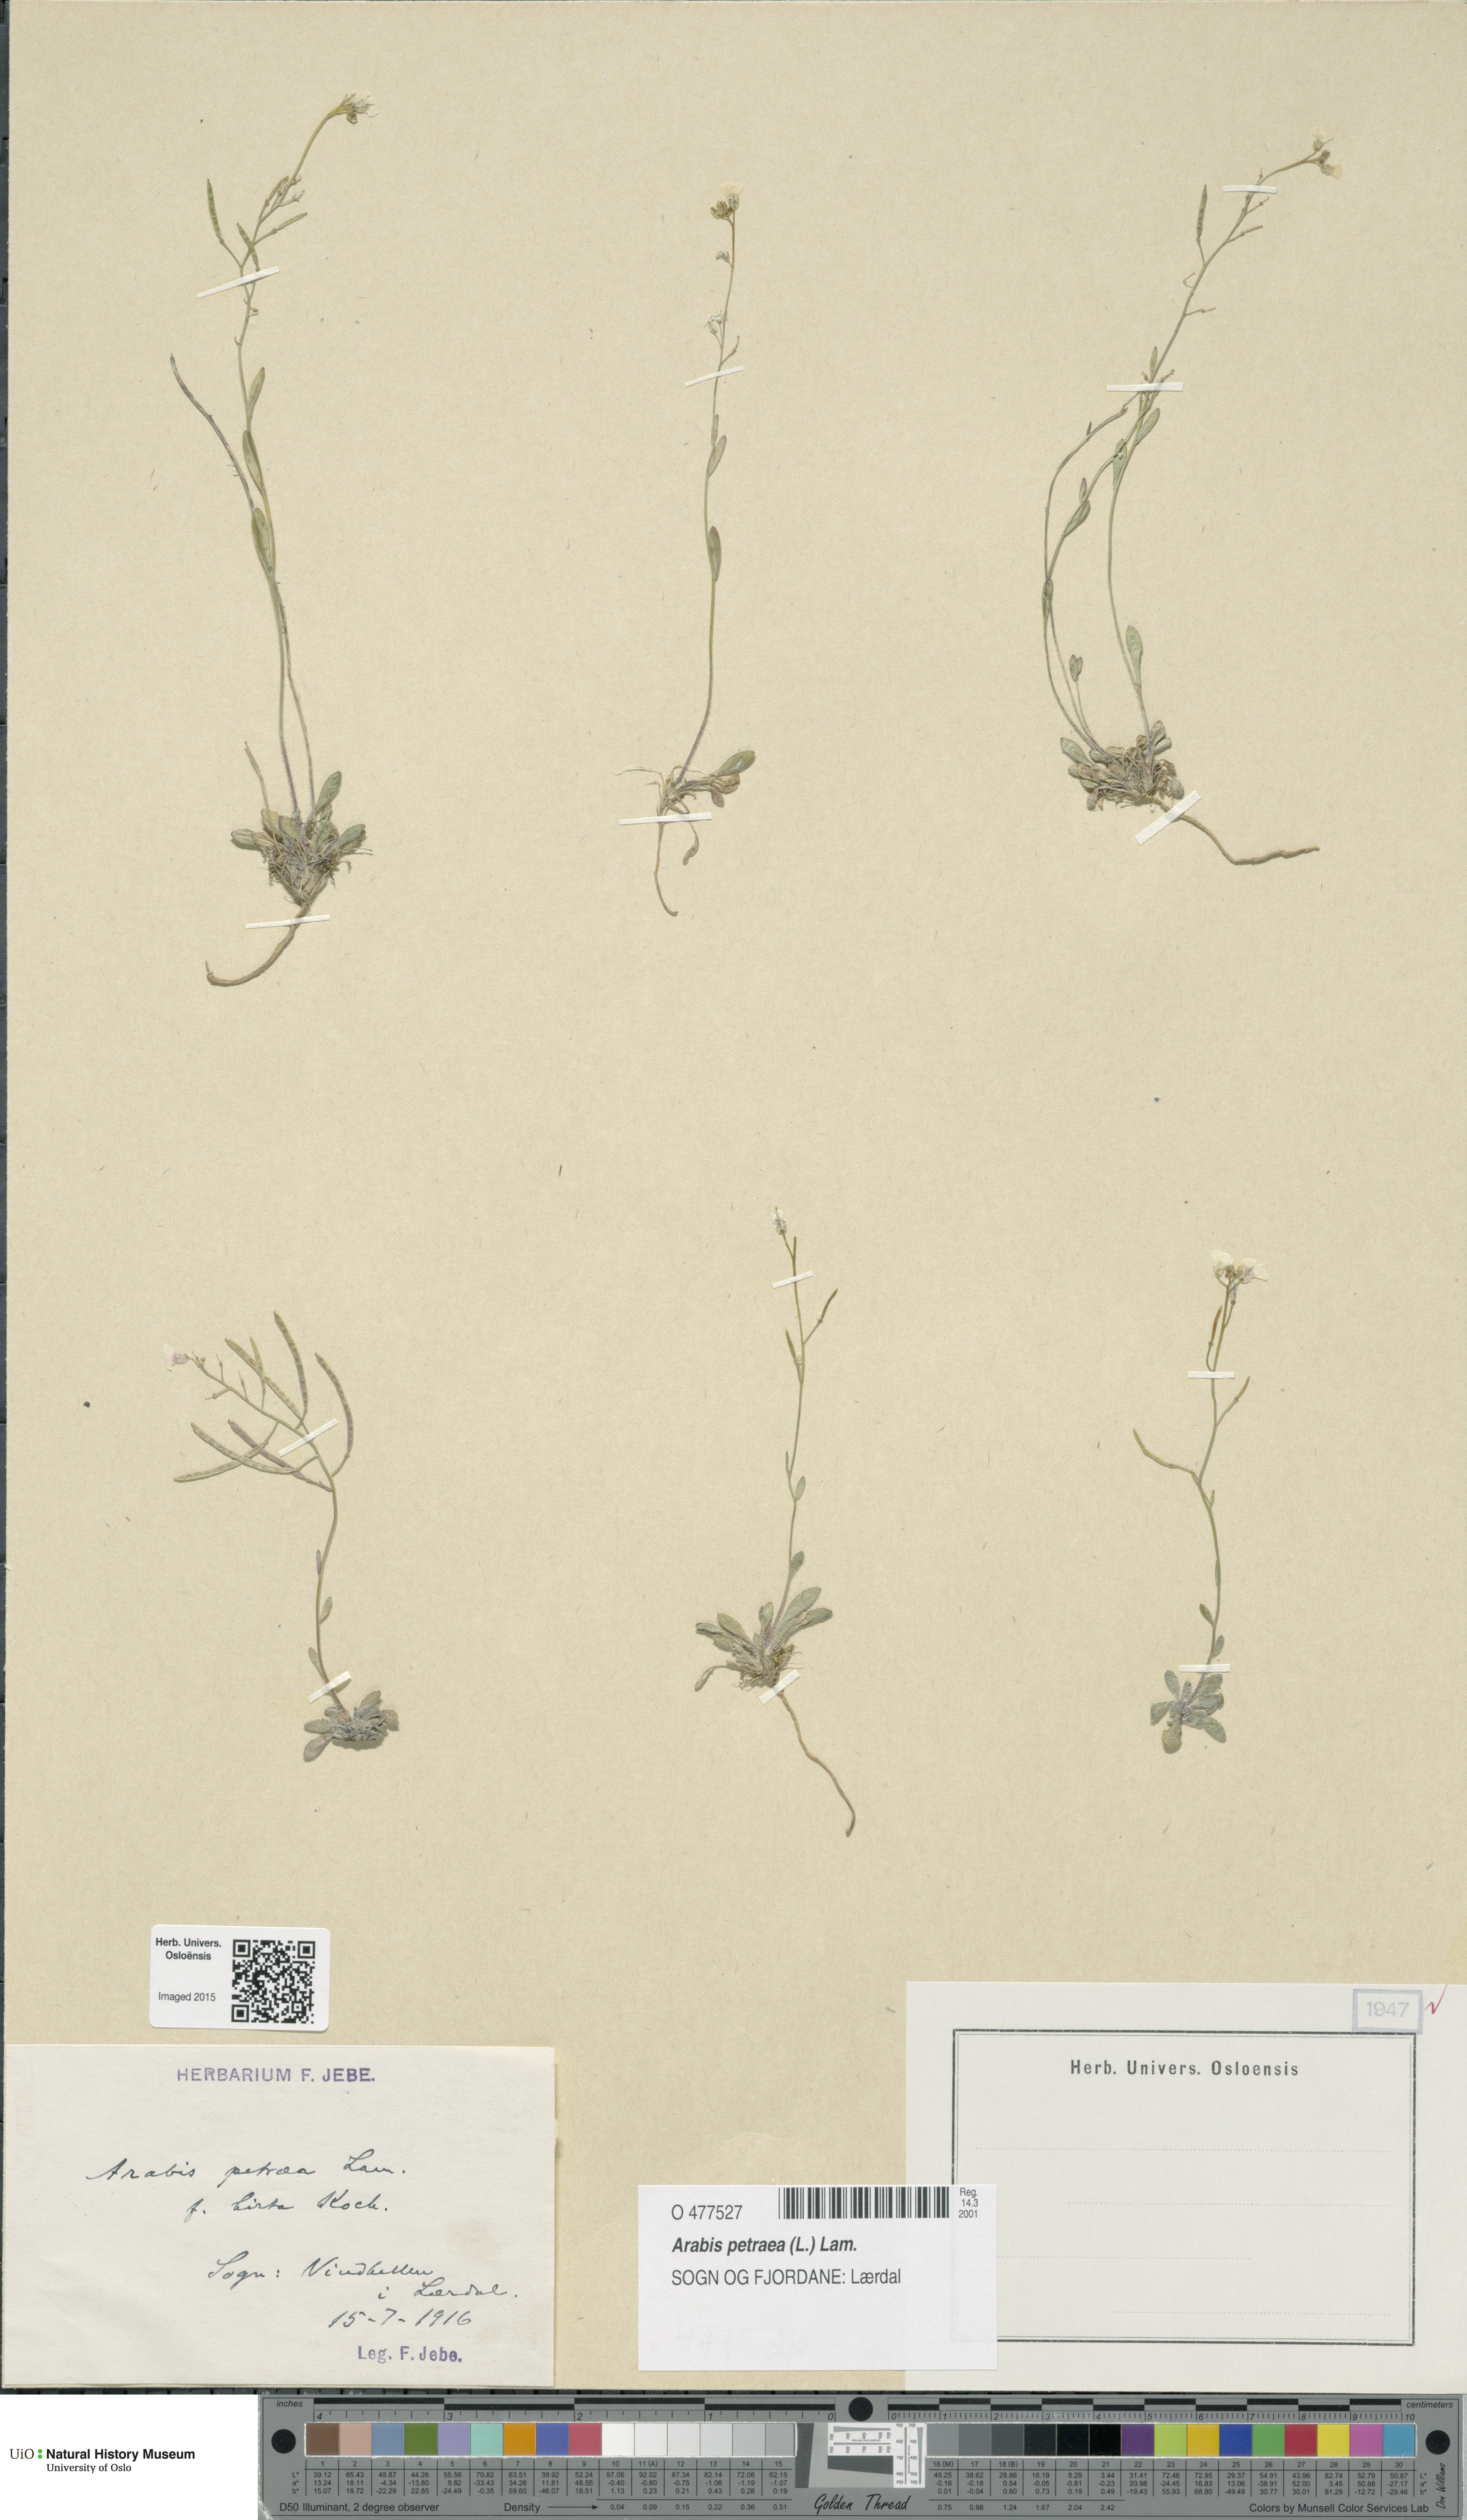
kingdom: Plantae
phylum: Tracheophyta
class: Magnoliopsida
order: Brassicales
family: Brassicaceae
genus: Arabidopsis
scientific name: Arabidopsis petraea
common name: Northern rock-cress
